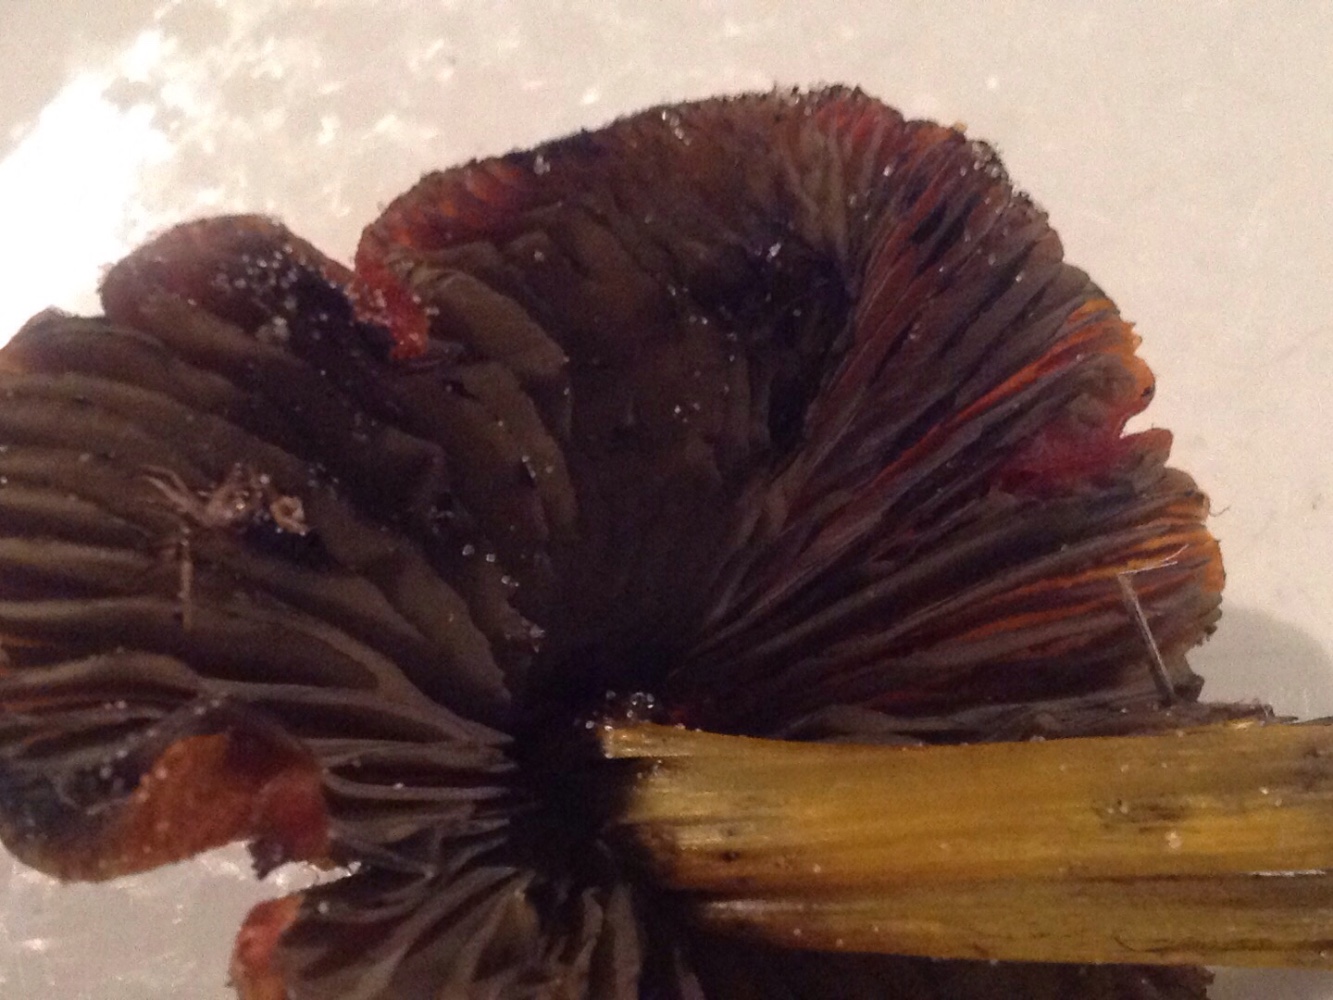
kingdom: Fungi
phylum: Basidiomycota
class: Agaricomycetes
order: Agaricales
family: Hygrophoraceae
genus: Hygrocybe
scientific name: Hygrocybe
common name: vokshat
